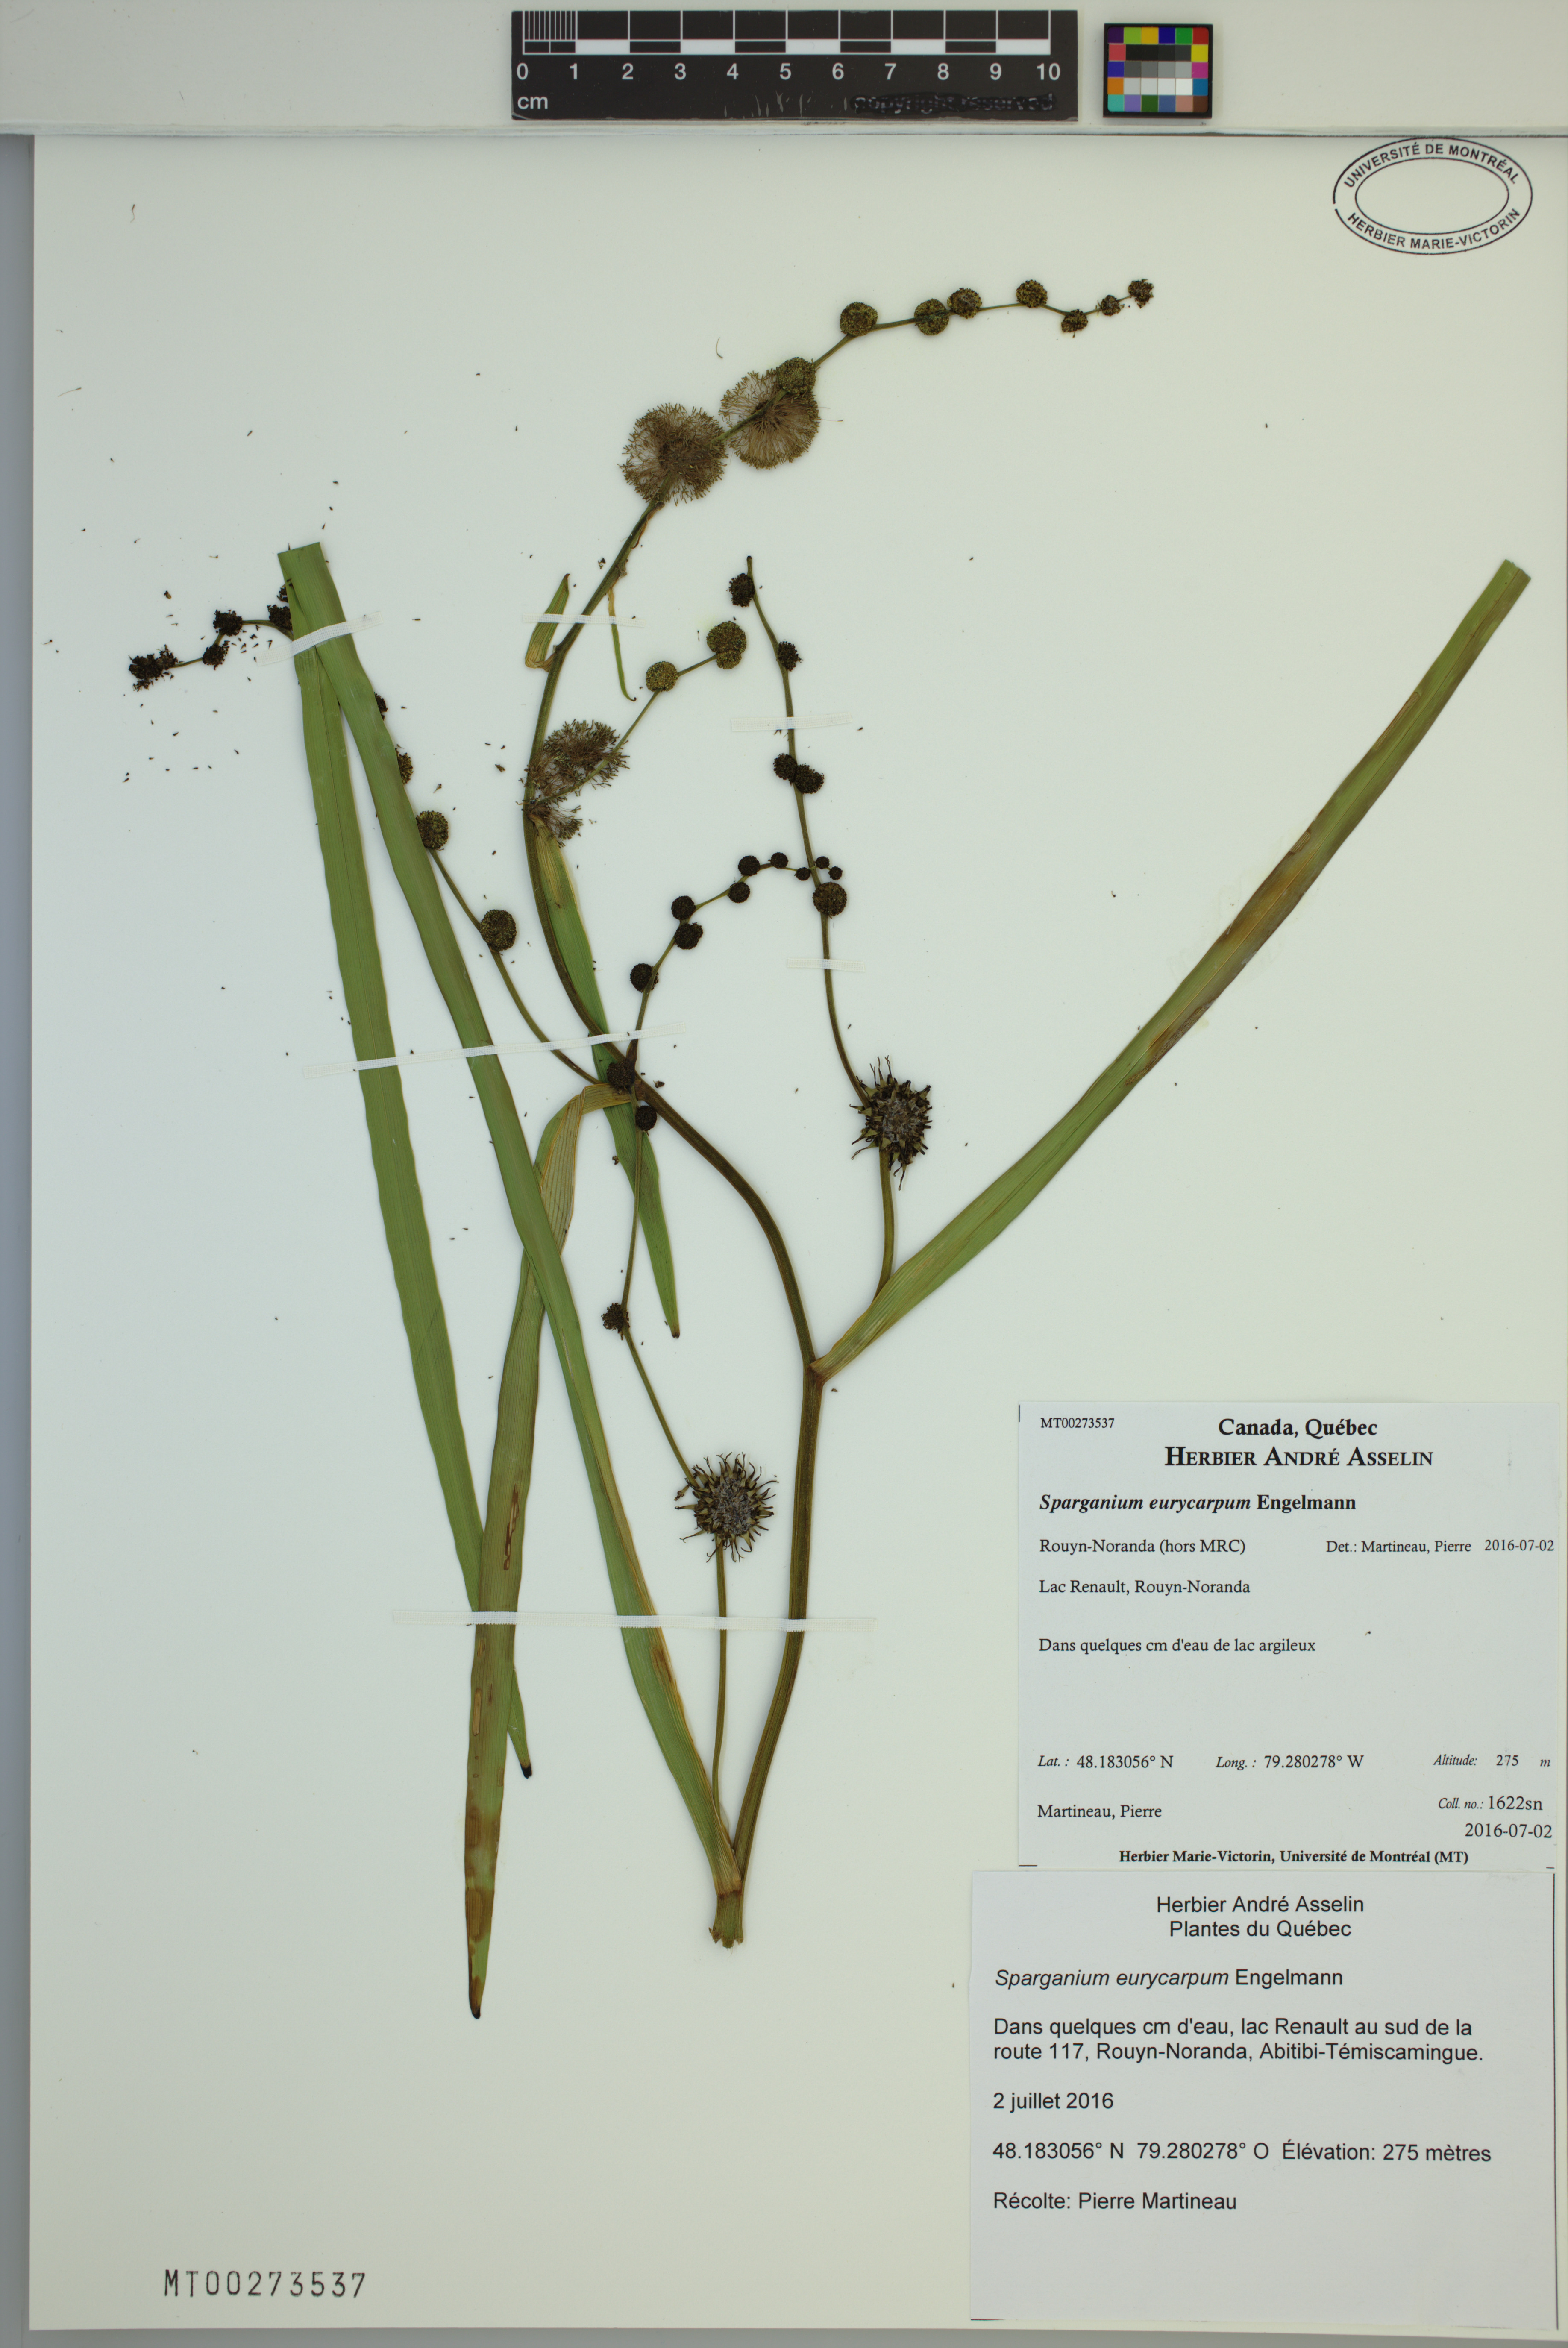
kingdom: Plantae
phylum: Tracheophyta
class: Liliopsida
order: Poales
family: Typhaceae
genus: Sparganium
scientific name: Sparganium eurycarpum
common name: Broad-fruited burreed
